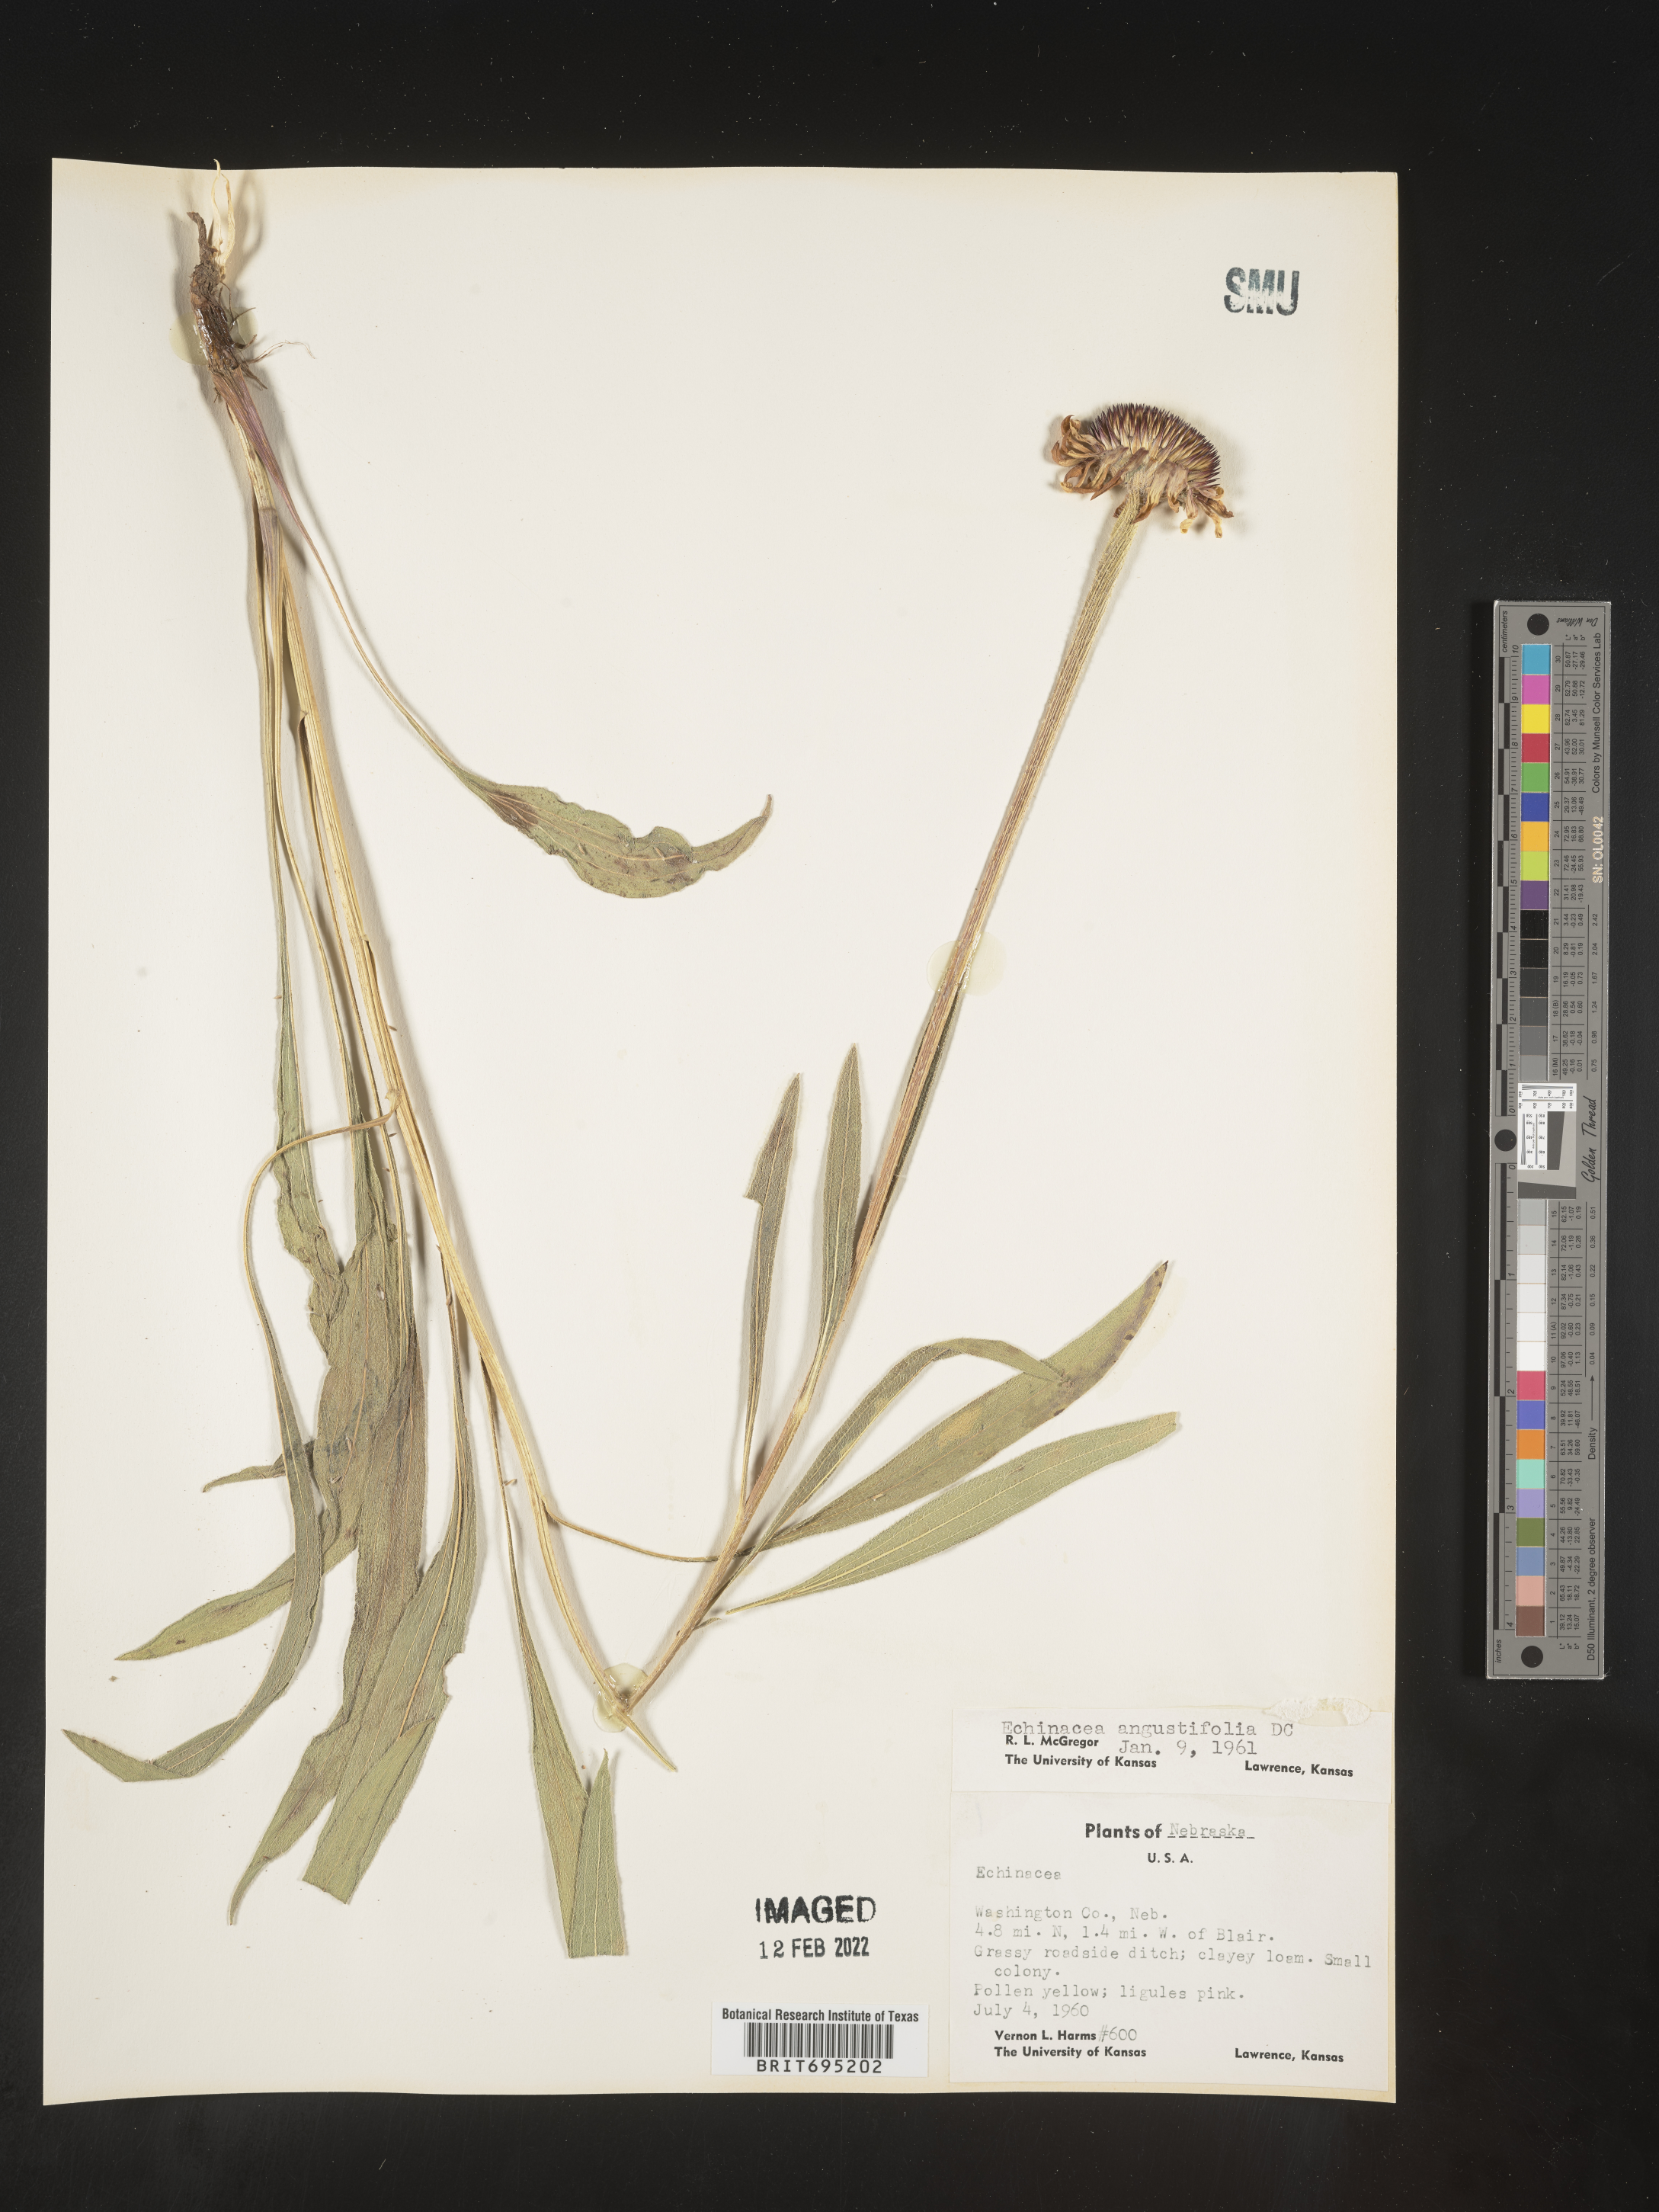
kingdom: Plantae
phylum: Tracheophyta
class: Magnoliopsida
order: Asterales
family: Asteraceae
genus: Echinacea
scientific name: Echinacea angustifolia
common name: Black-sampson echinacea
